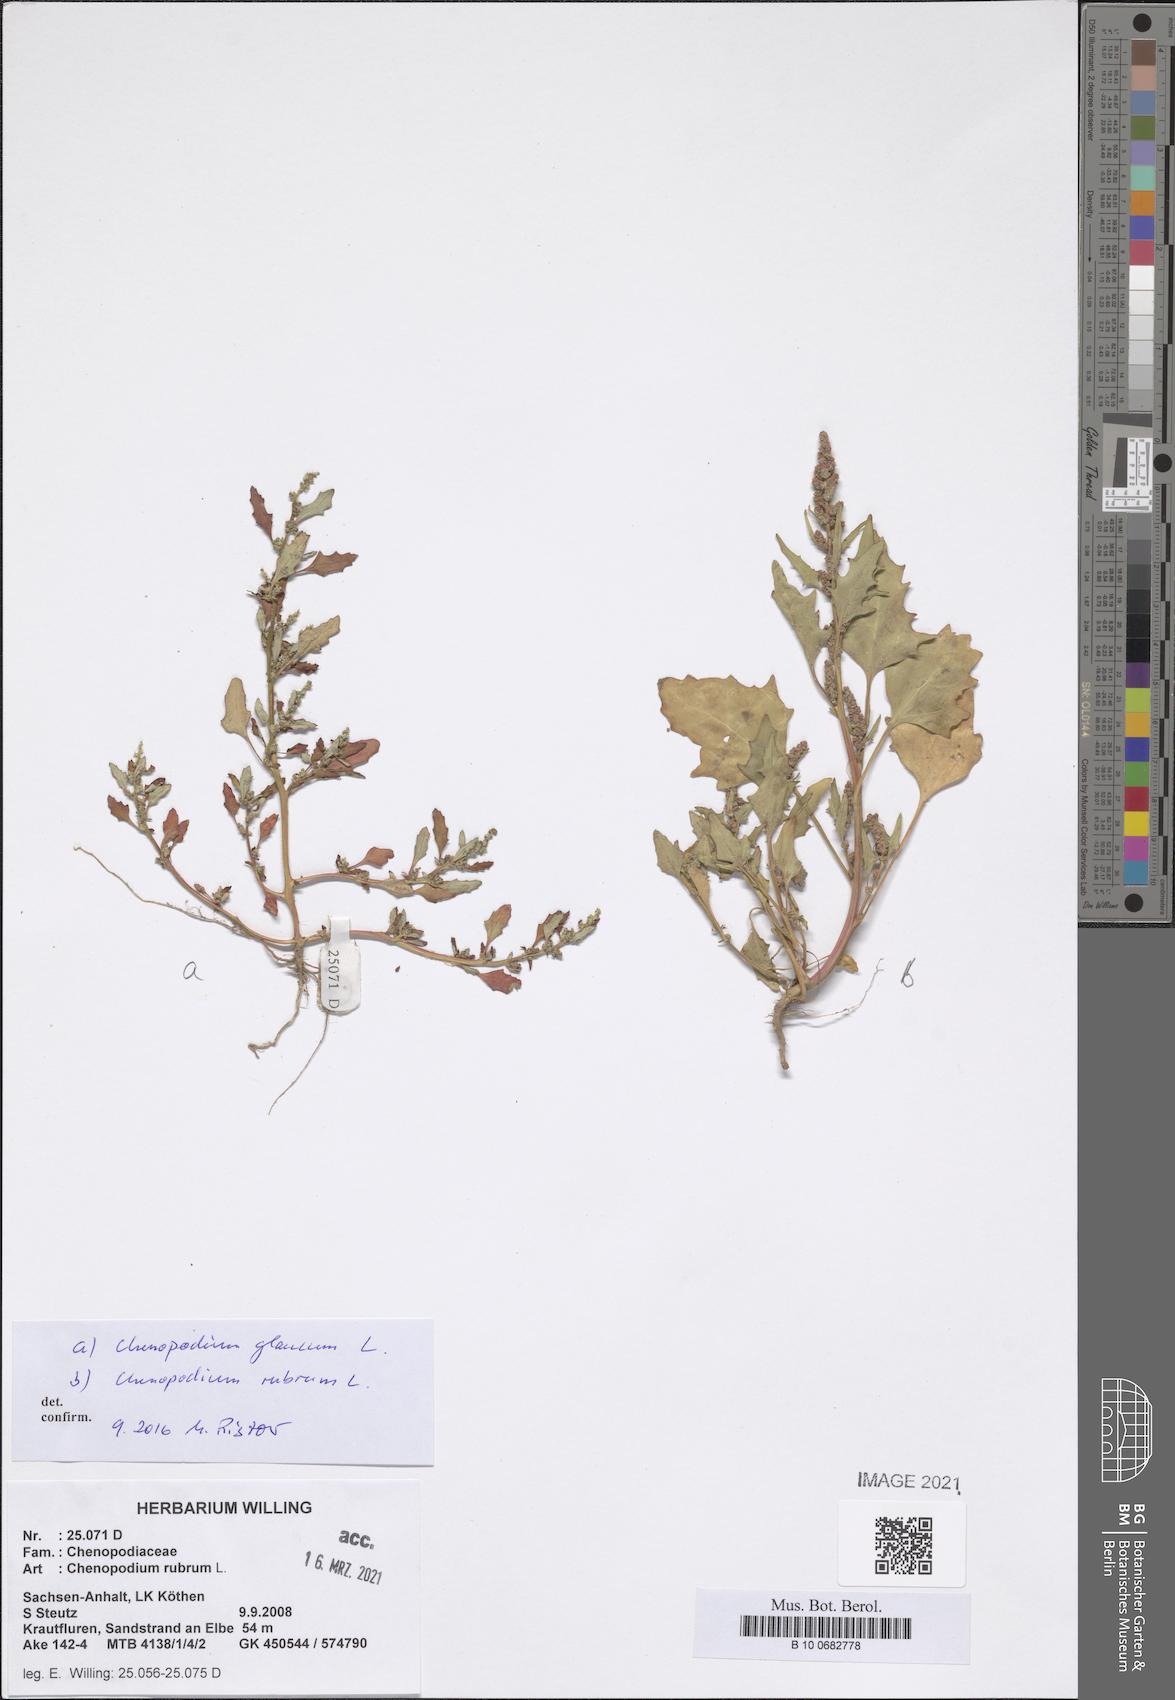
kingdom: Plantae
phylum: Tracheophyta
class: Magnoliopsida
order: Caryophyllales
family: Amaranthaceae
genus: Oxybasis
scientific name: Oxybasis rubra
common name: Red goosefoot
